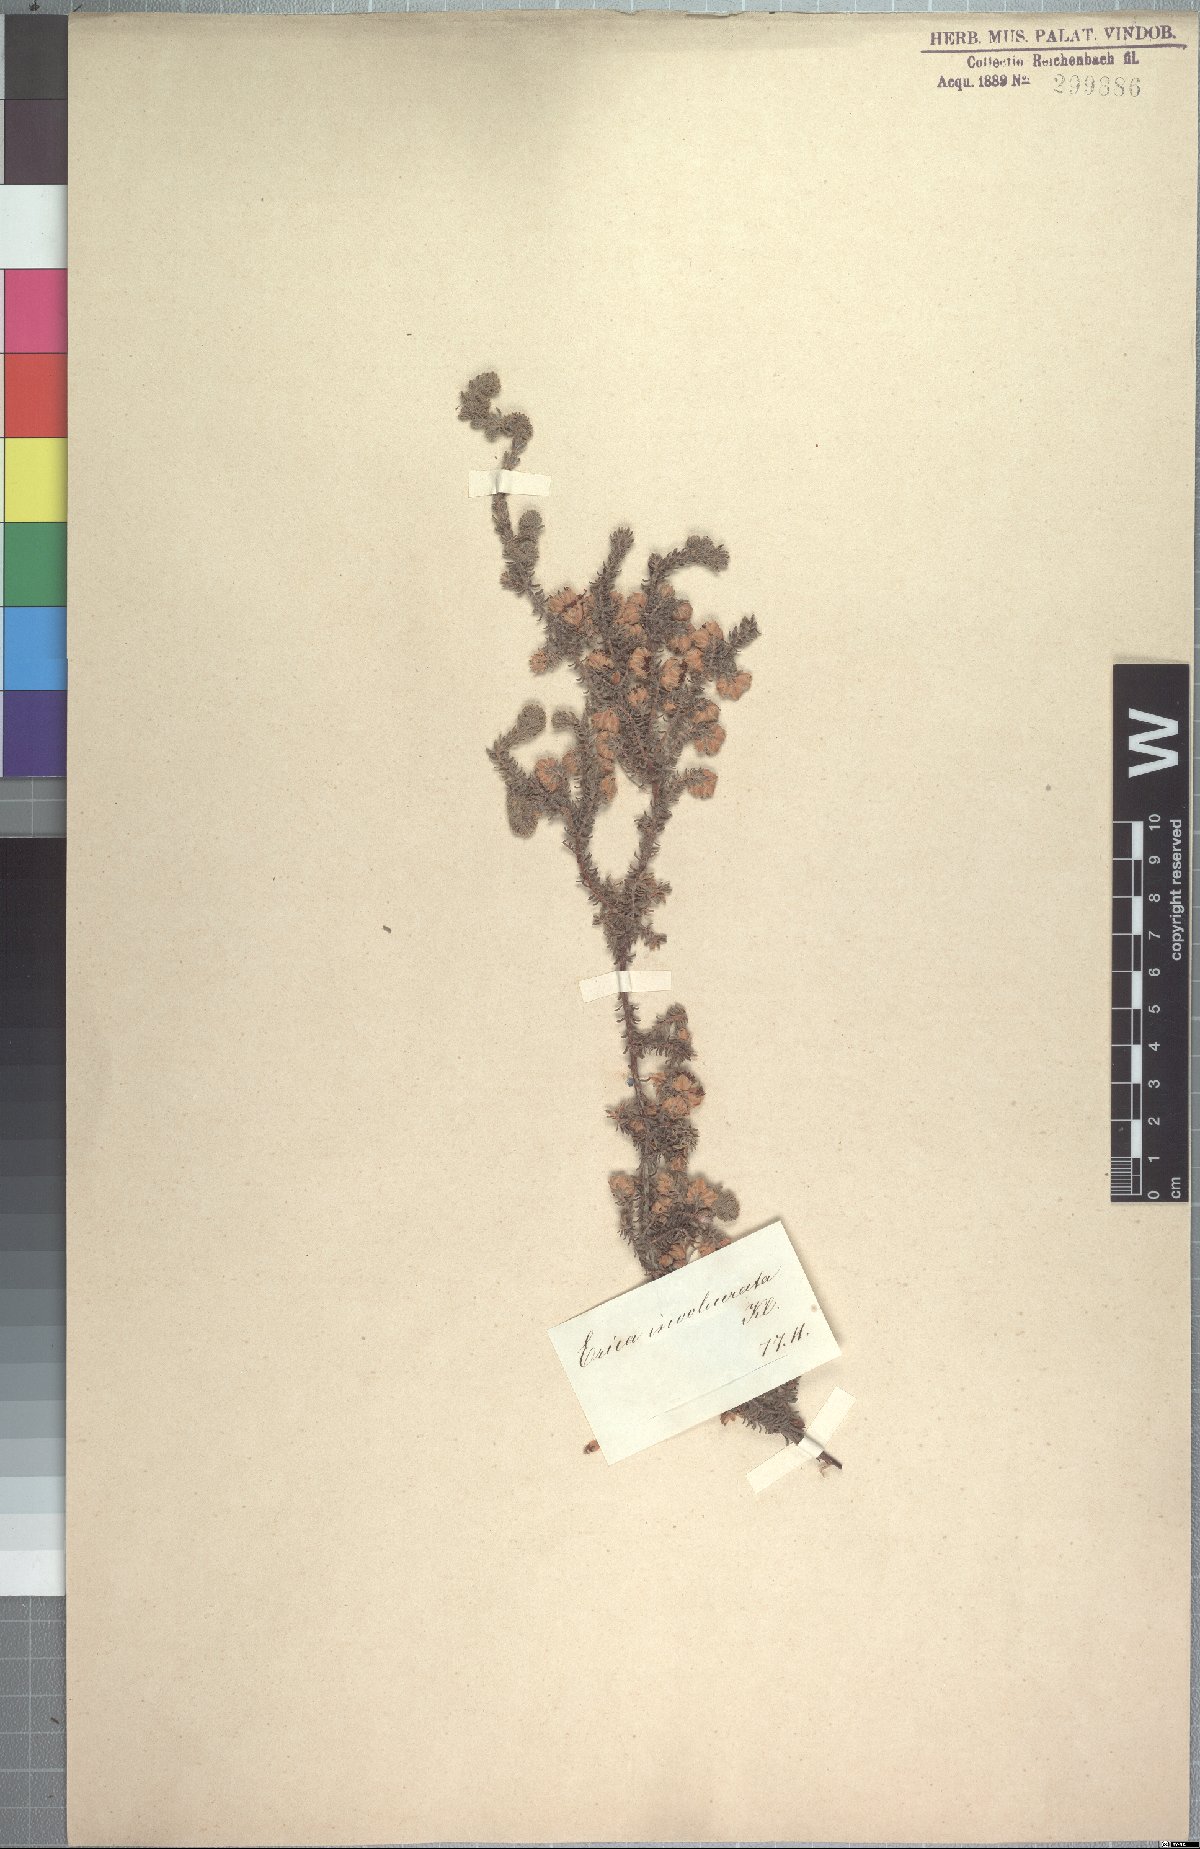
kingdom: Plantae
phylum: Tracheophyta
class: Magnoliopsida
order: Ericales
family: Ericaceae
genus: Erica
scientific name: Erica involucrata
